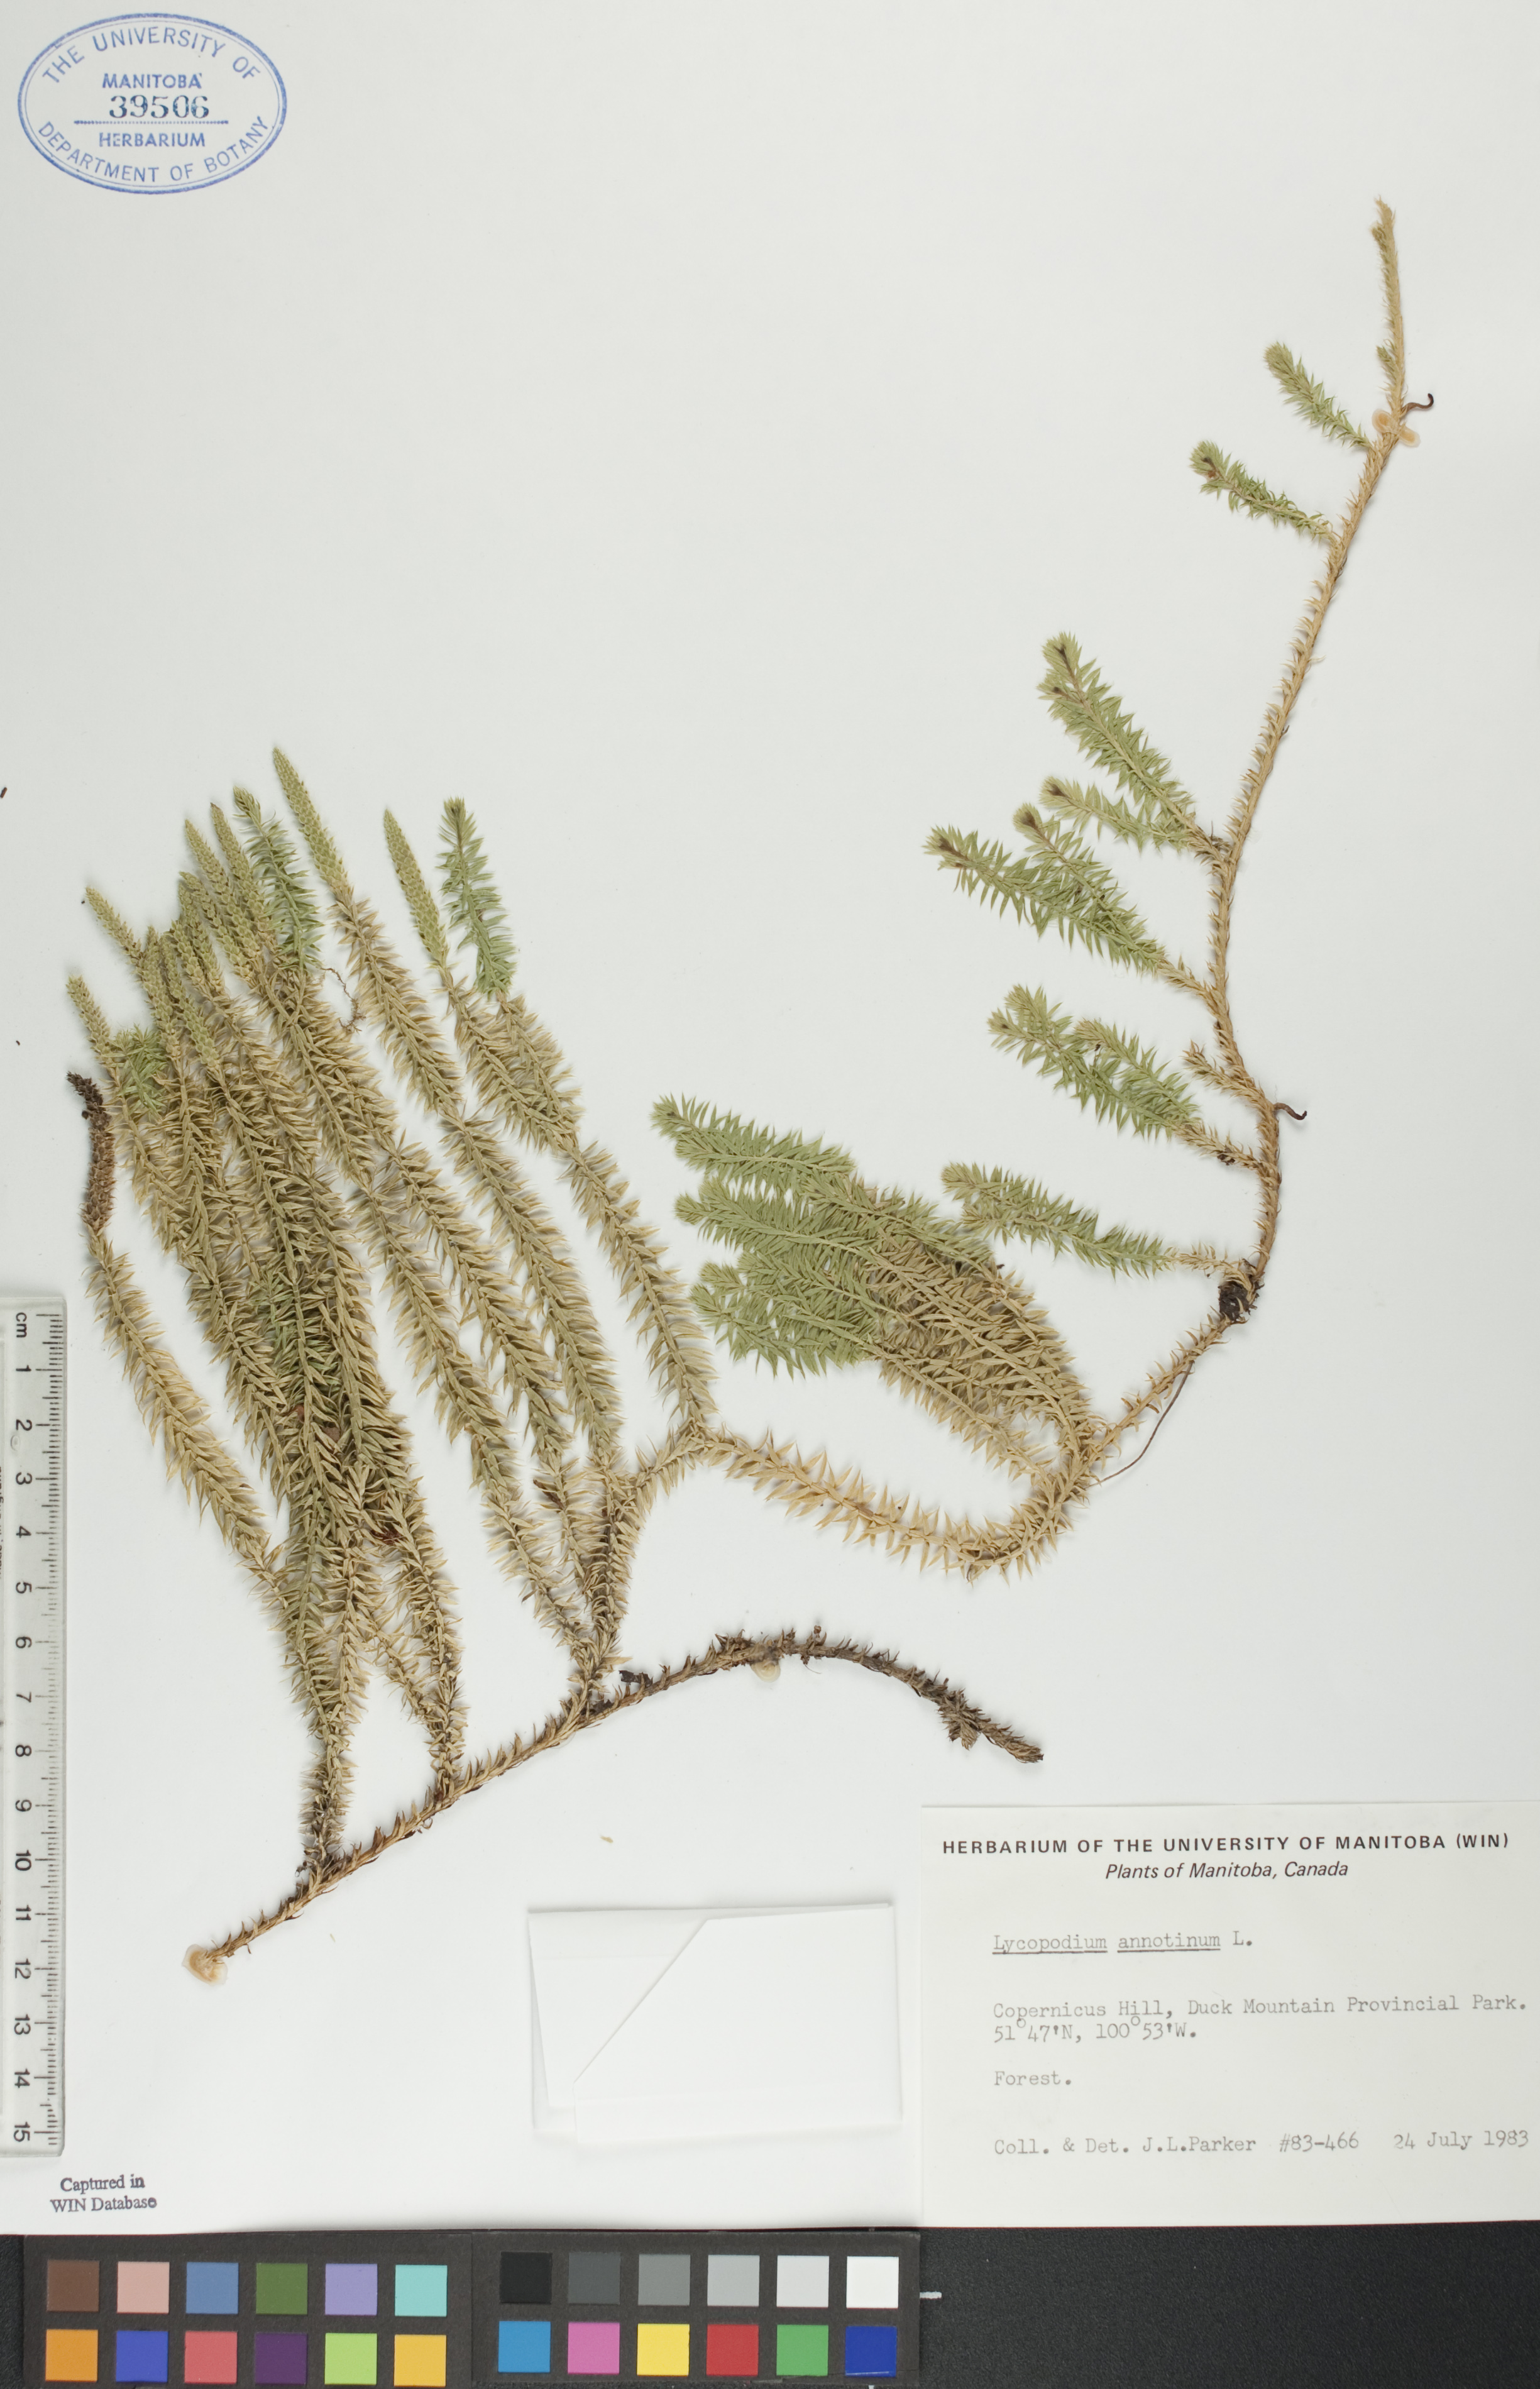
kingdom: Plantae
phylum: Tracheophyta
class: Lycopodiopsida
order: Lycopodiales
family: Lycopodiaceae
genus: Spinulum
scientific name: Spinulum annotinum
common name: Interrupted club-moss
